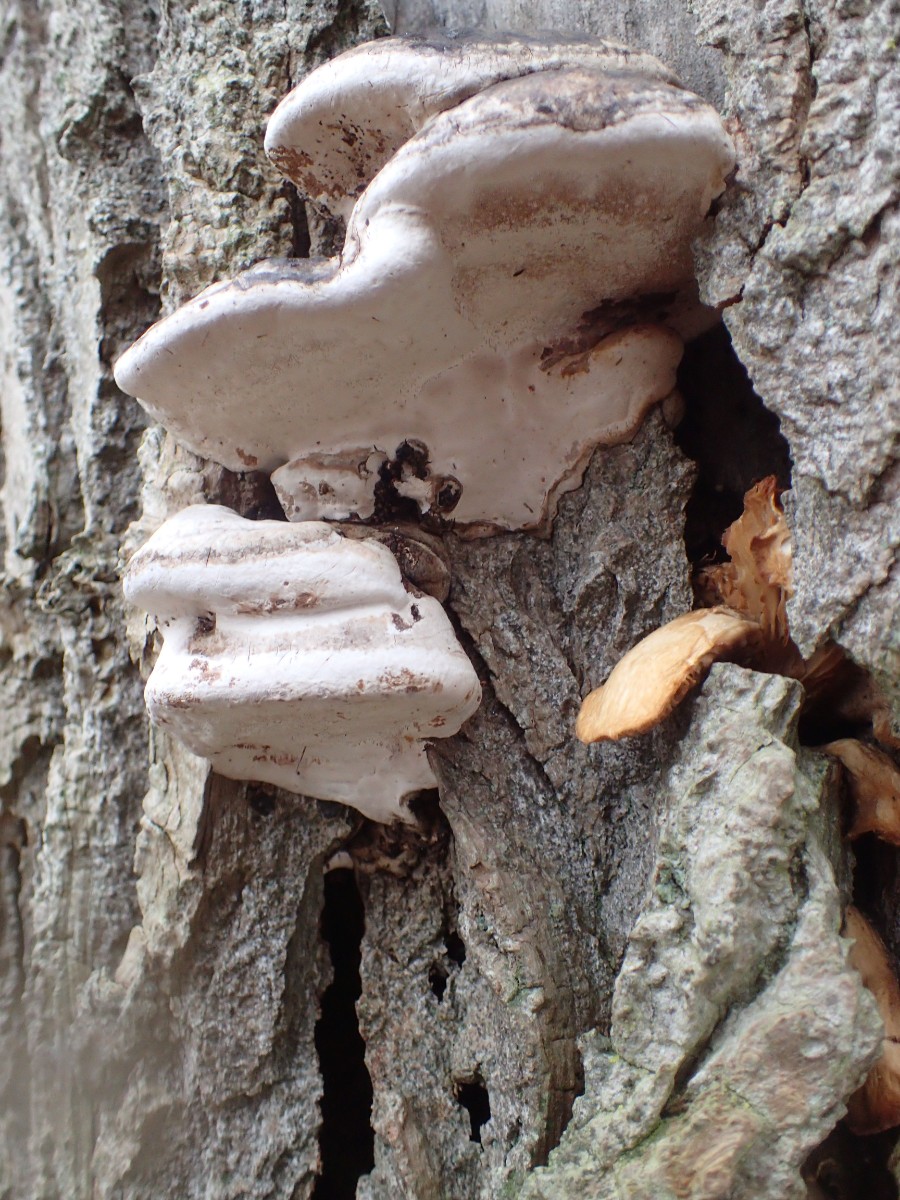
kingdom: Fungi
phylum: Basidiomycota
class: Agaricomycetes
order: Polyporales
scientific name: Polyporales
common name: poresvampordenen
